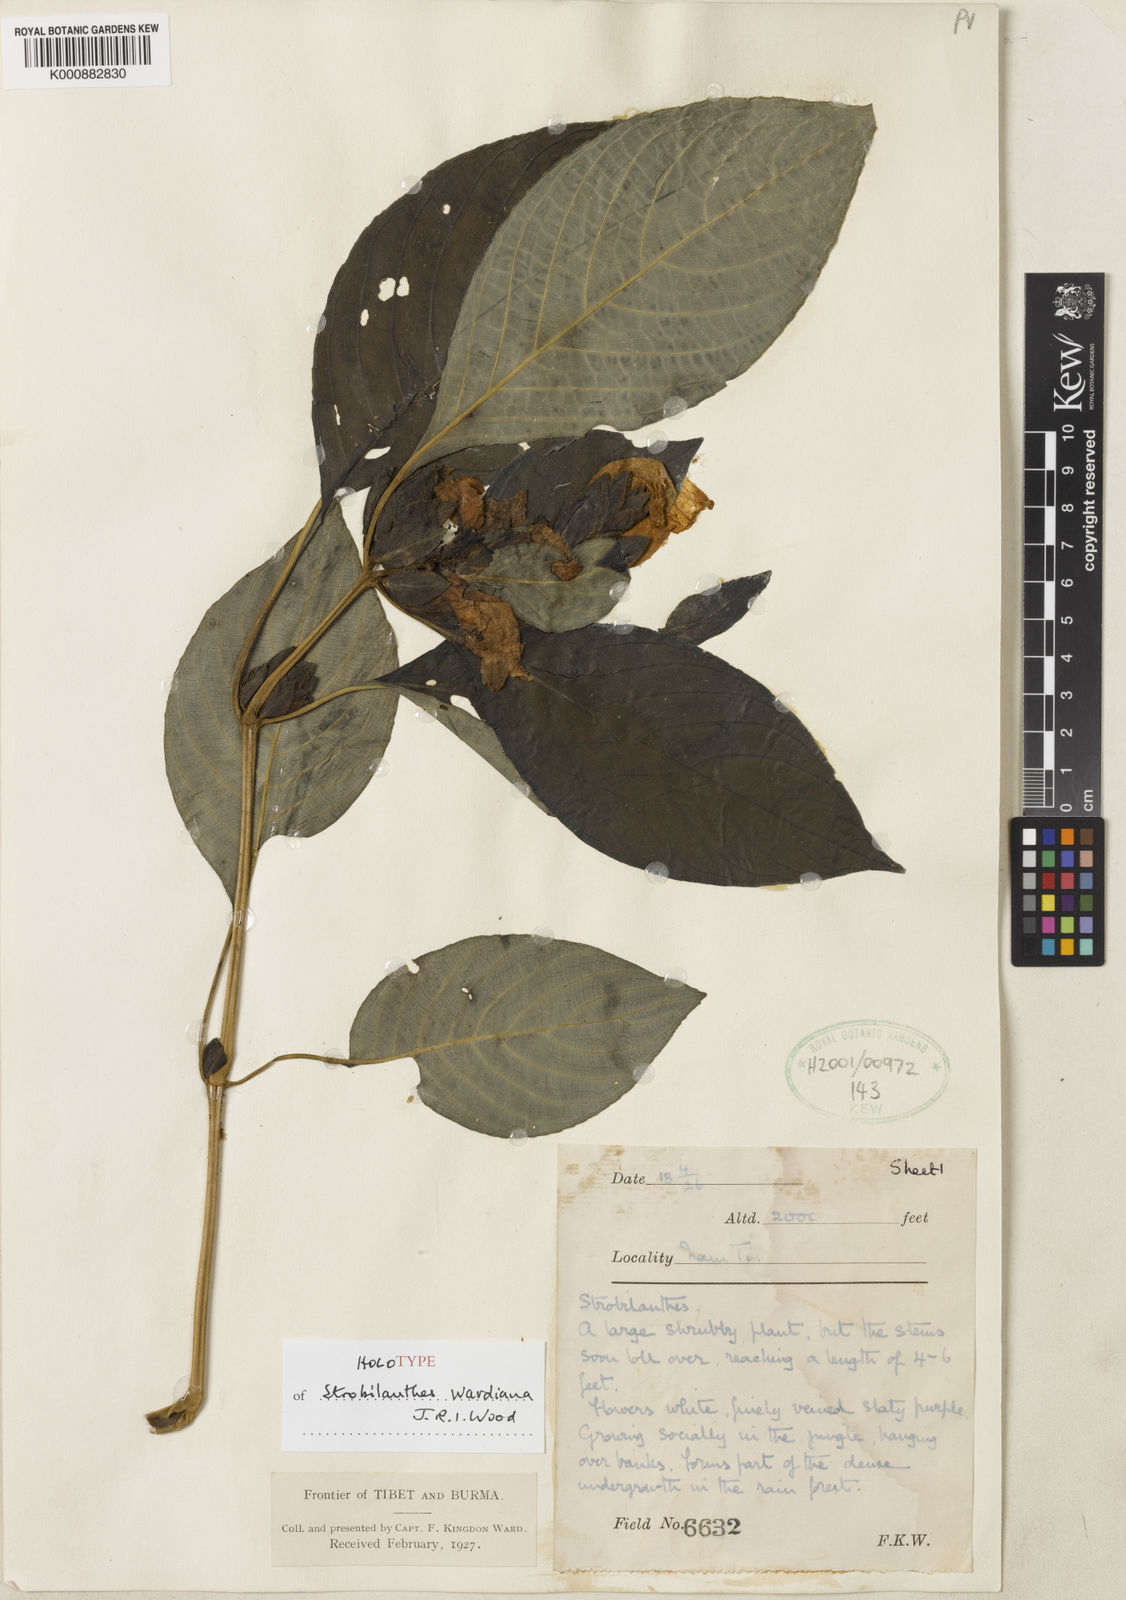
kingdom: Plantae
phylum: Tracheophyta
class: Magnoliopsida
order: Lamiales
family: Acanthaceae
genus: Strobilanthes
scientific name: Strobilanthes wardiana
